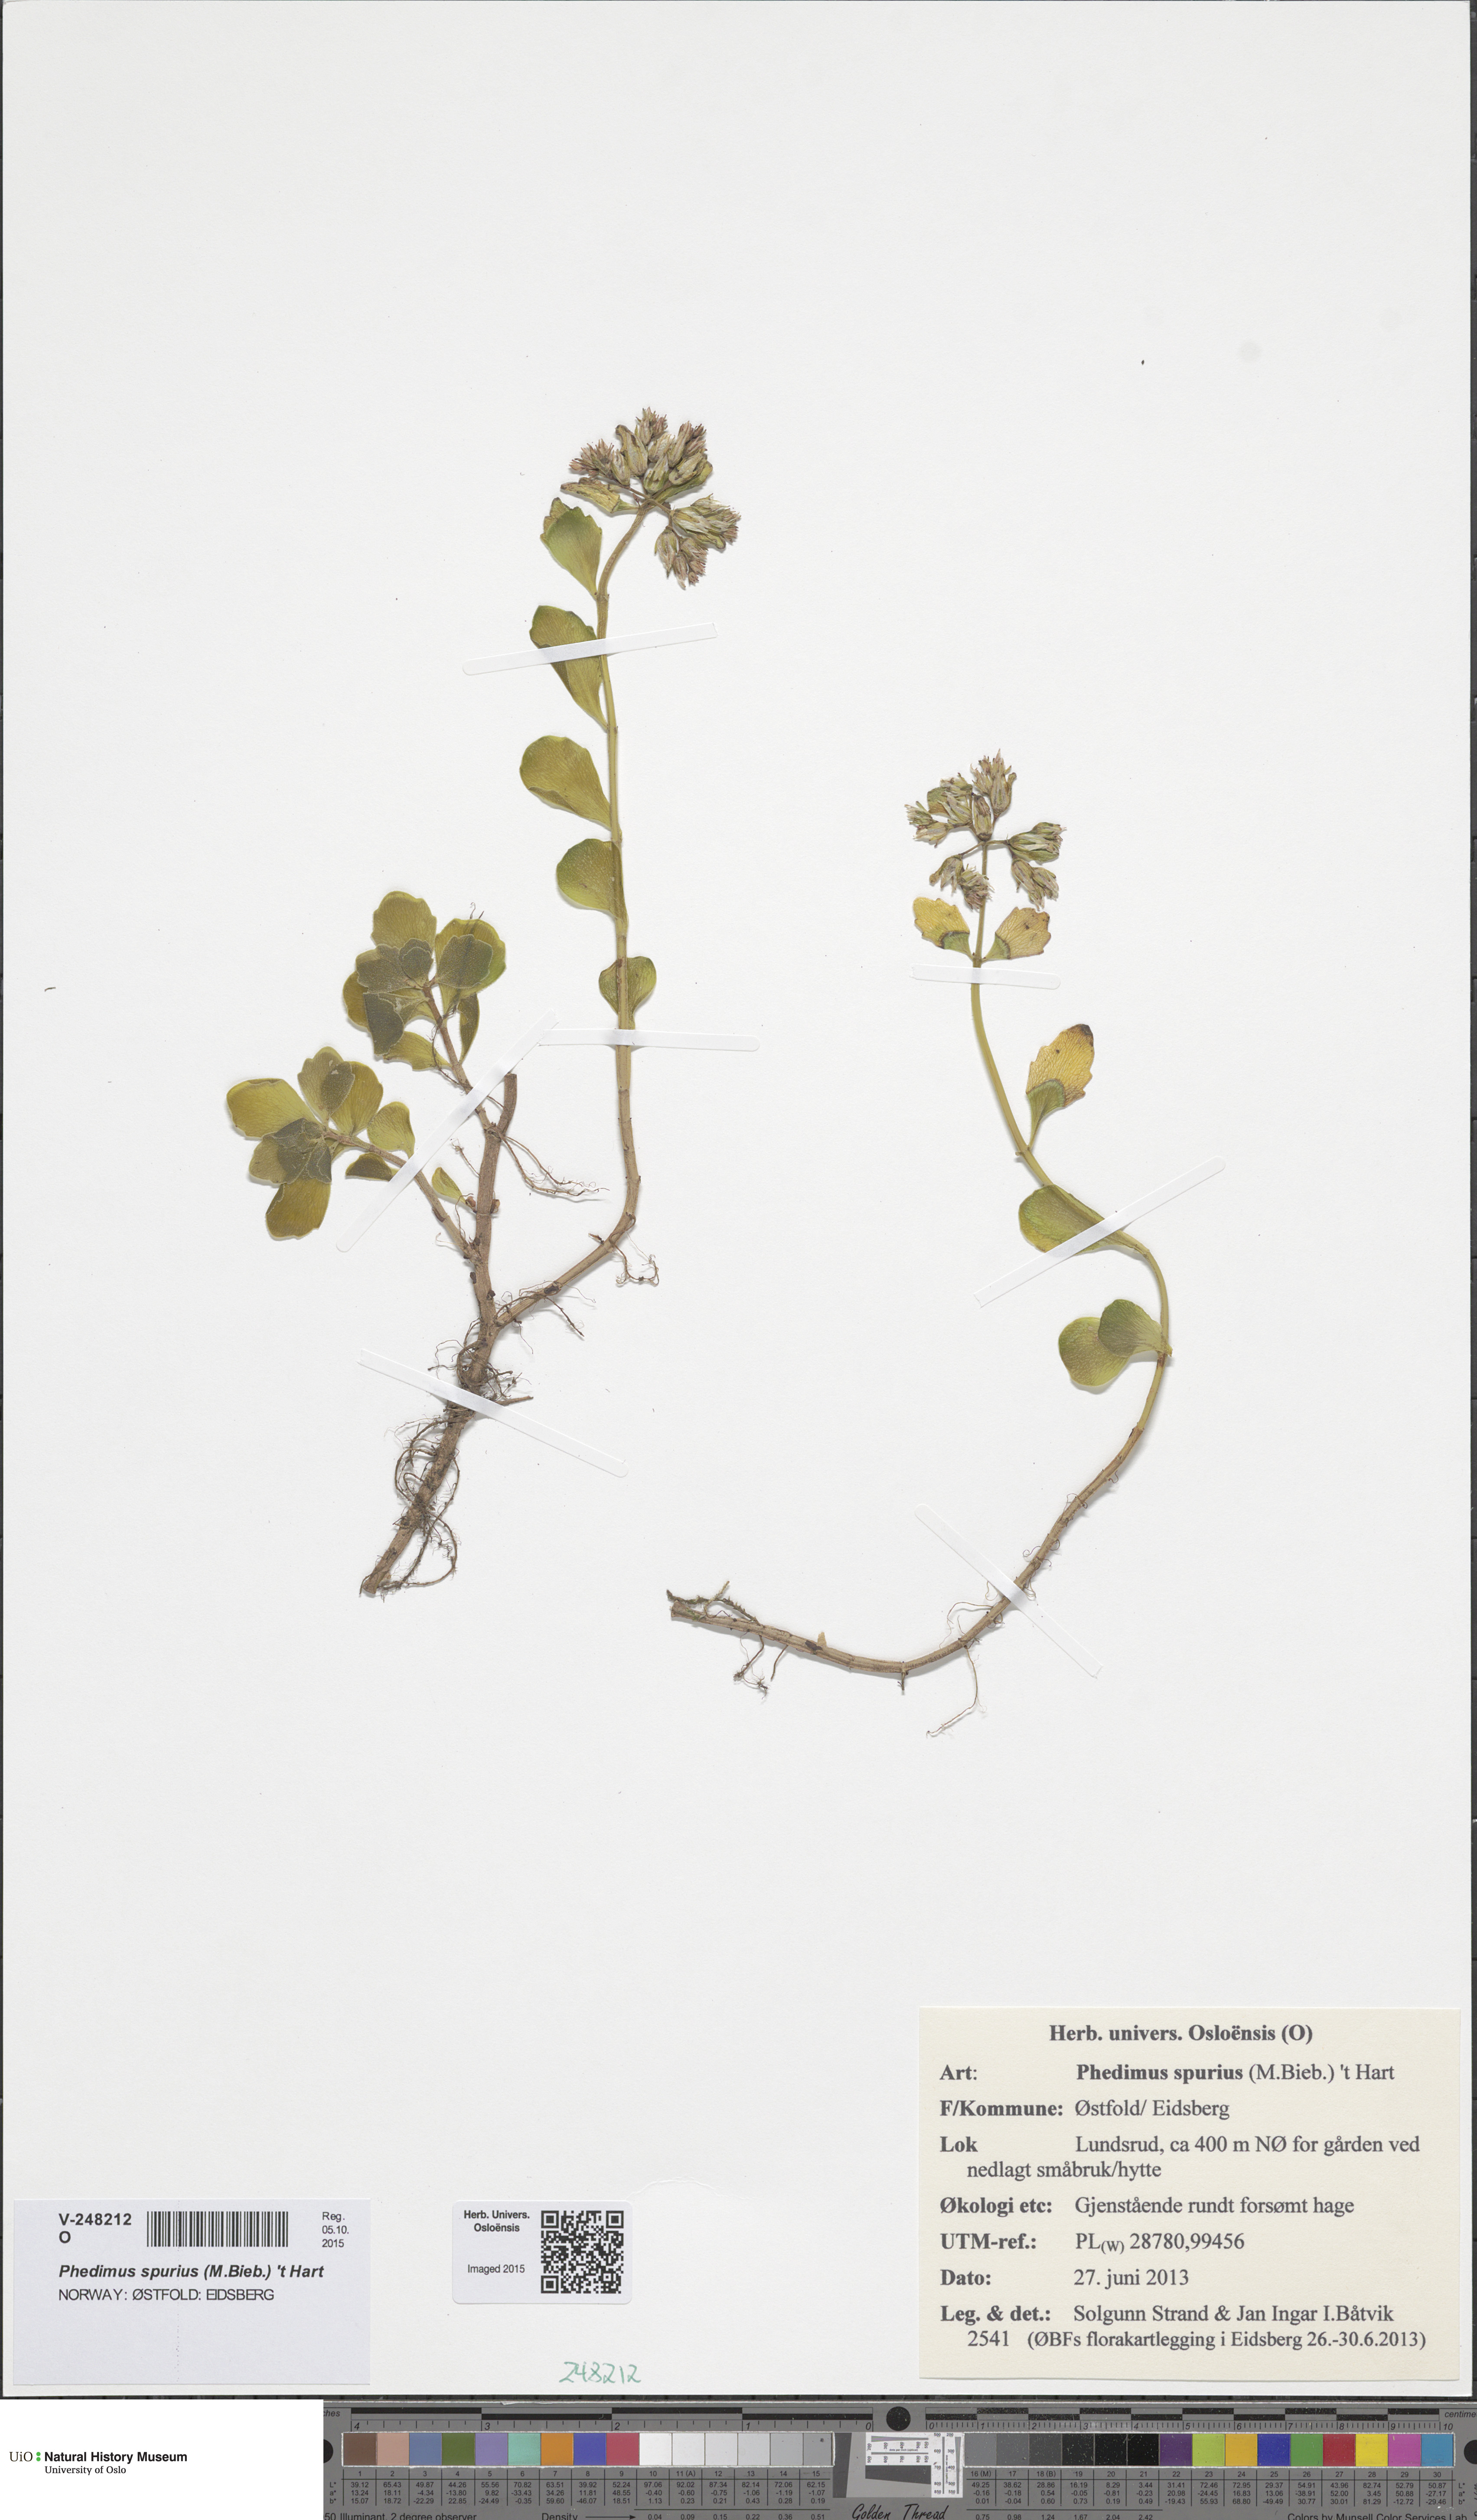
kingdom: Plantae
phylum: Tracheophyta
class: Magnoliopsida
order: Saxifragales
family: Crassulaceae
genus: Phedimus
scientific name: Phedimus spurius
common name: Caucasian stonecrop
